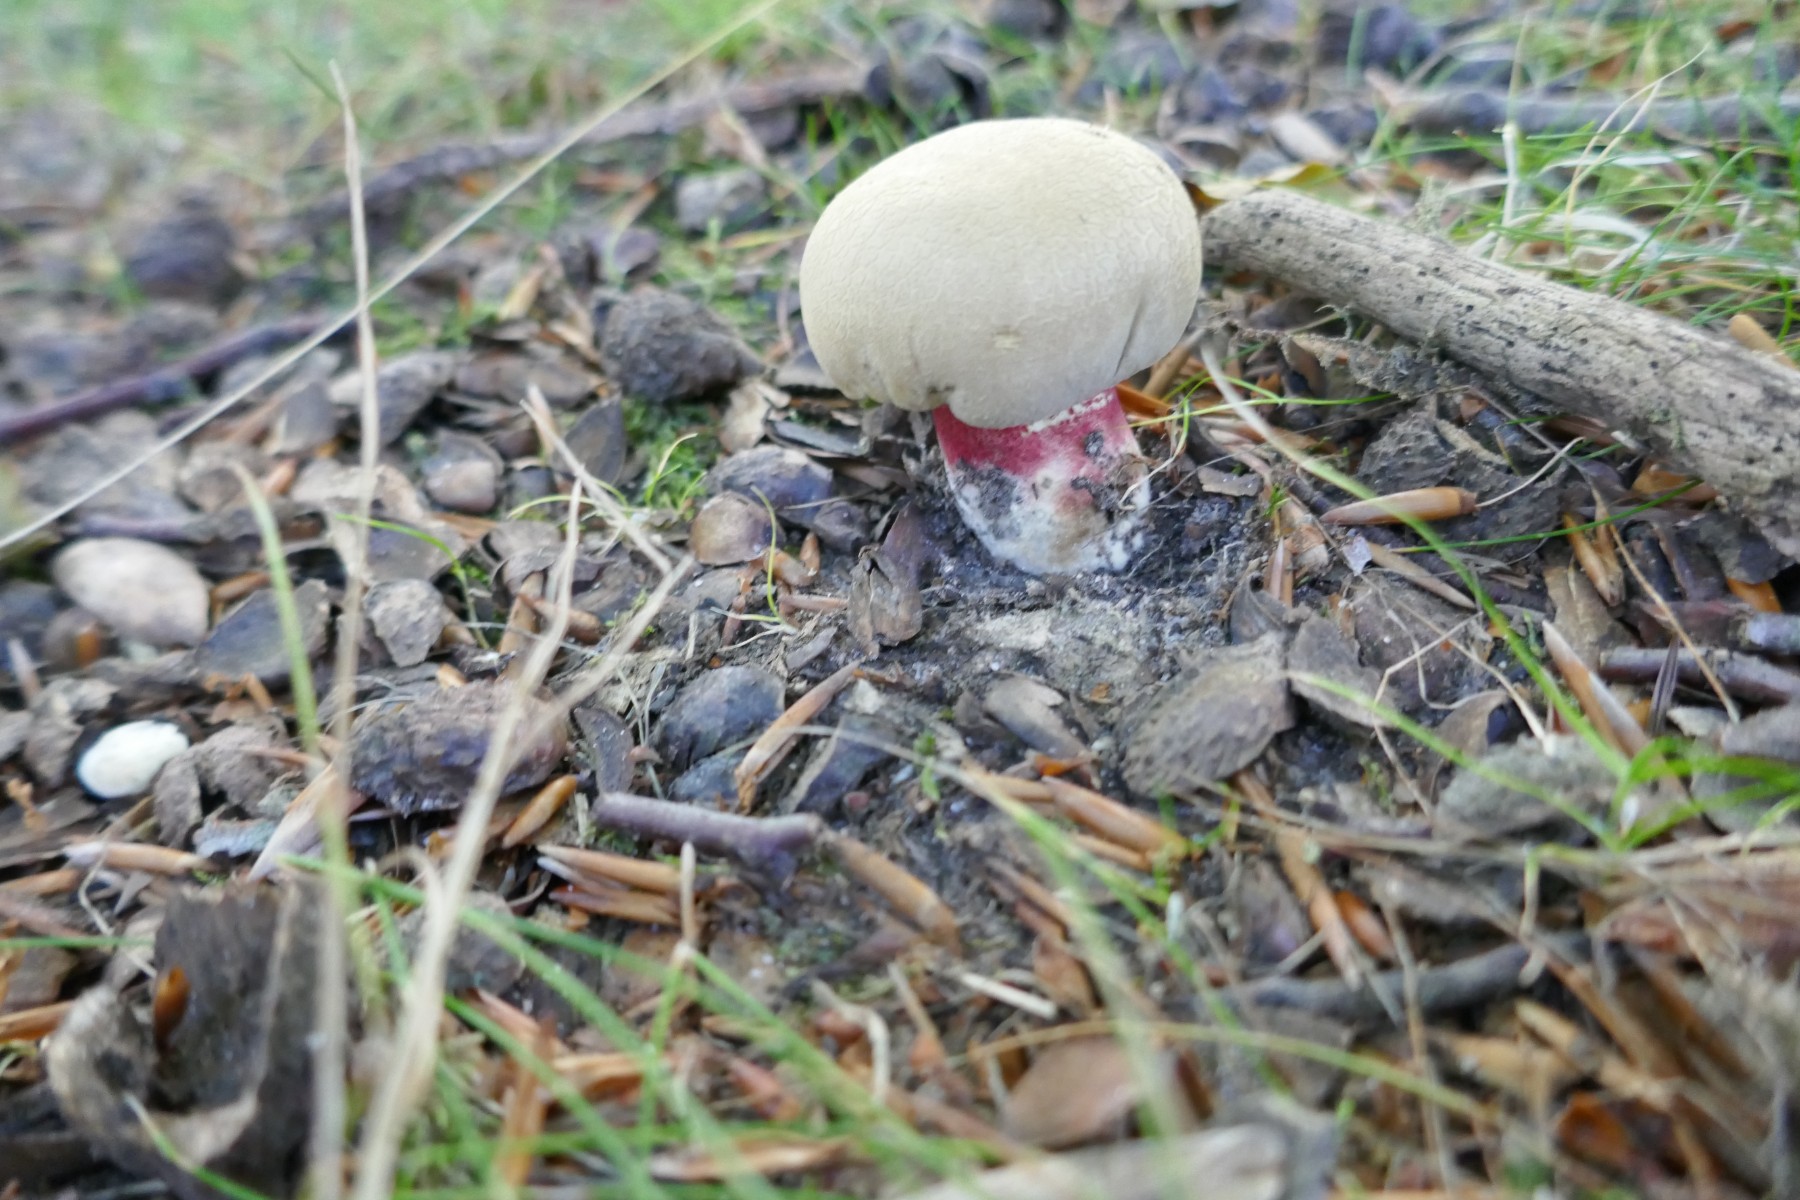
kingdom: Fungi
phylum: Basidiomycota
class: Agaricomycetes
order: Boletales
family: Boletaceae
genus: Caloboletus
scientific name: Caloboletus calopus
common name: skønfodet rørhat
